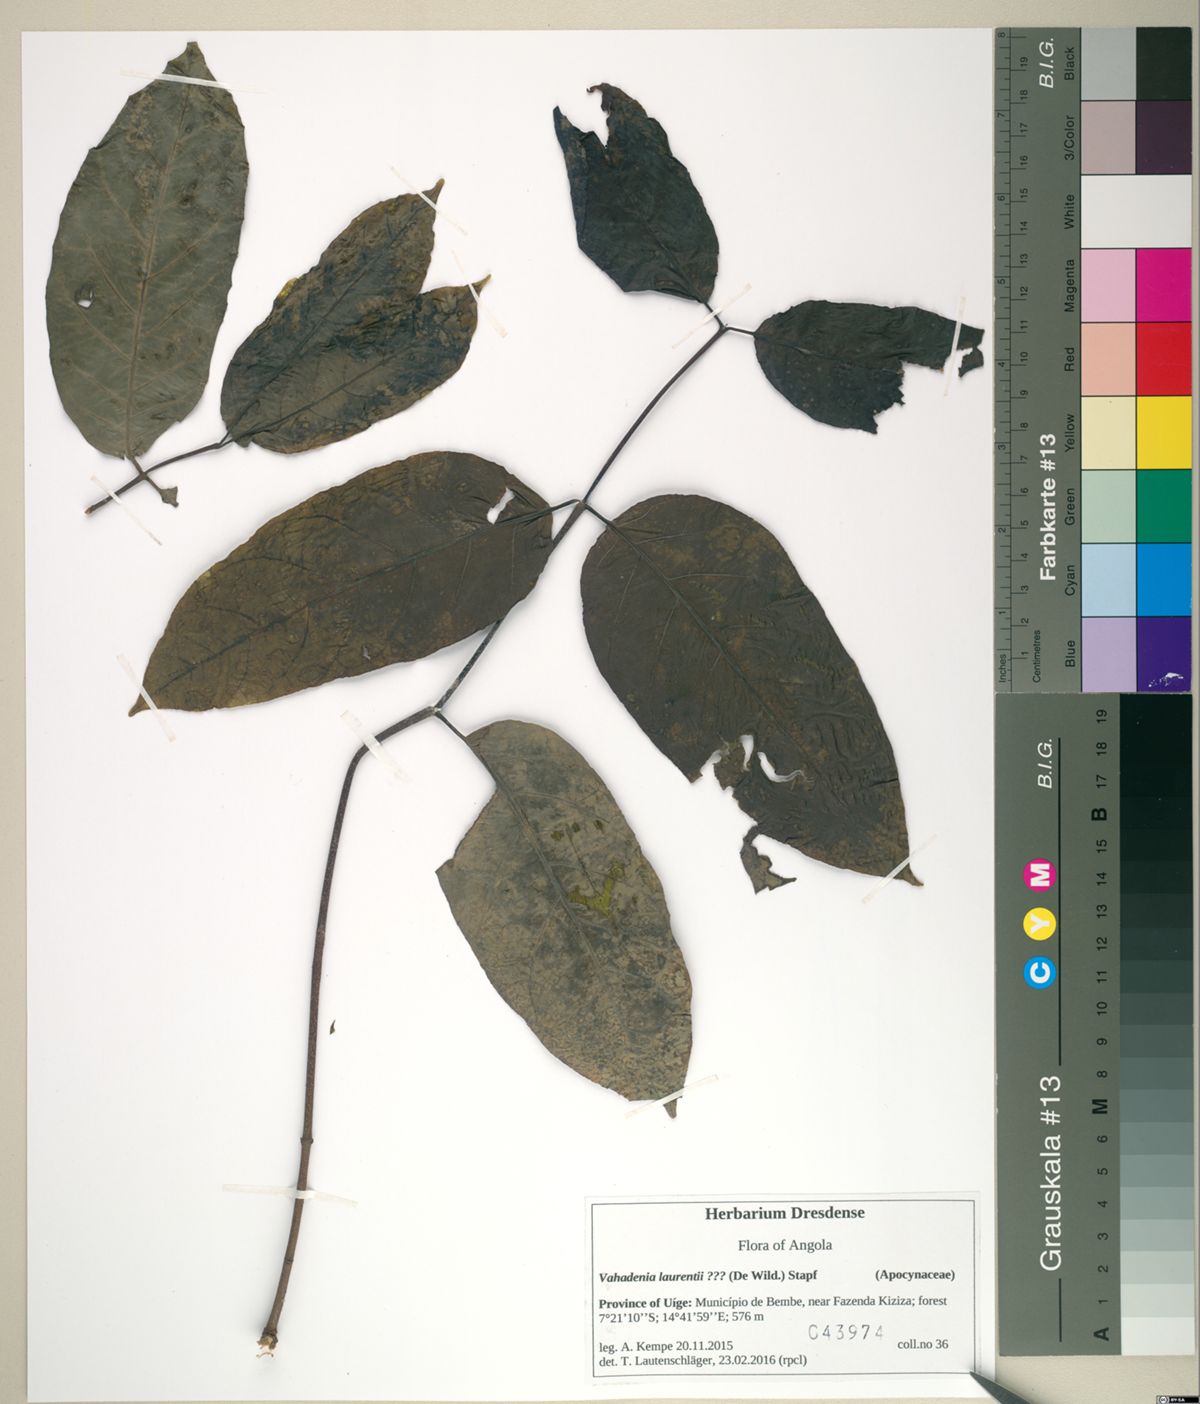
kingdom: Plantae
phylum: Tracheophyta
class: Magnoliopsida
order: Gentianales
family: Apocynaceae
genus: Vahadenia
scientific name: Vahadenia laurentii
